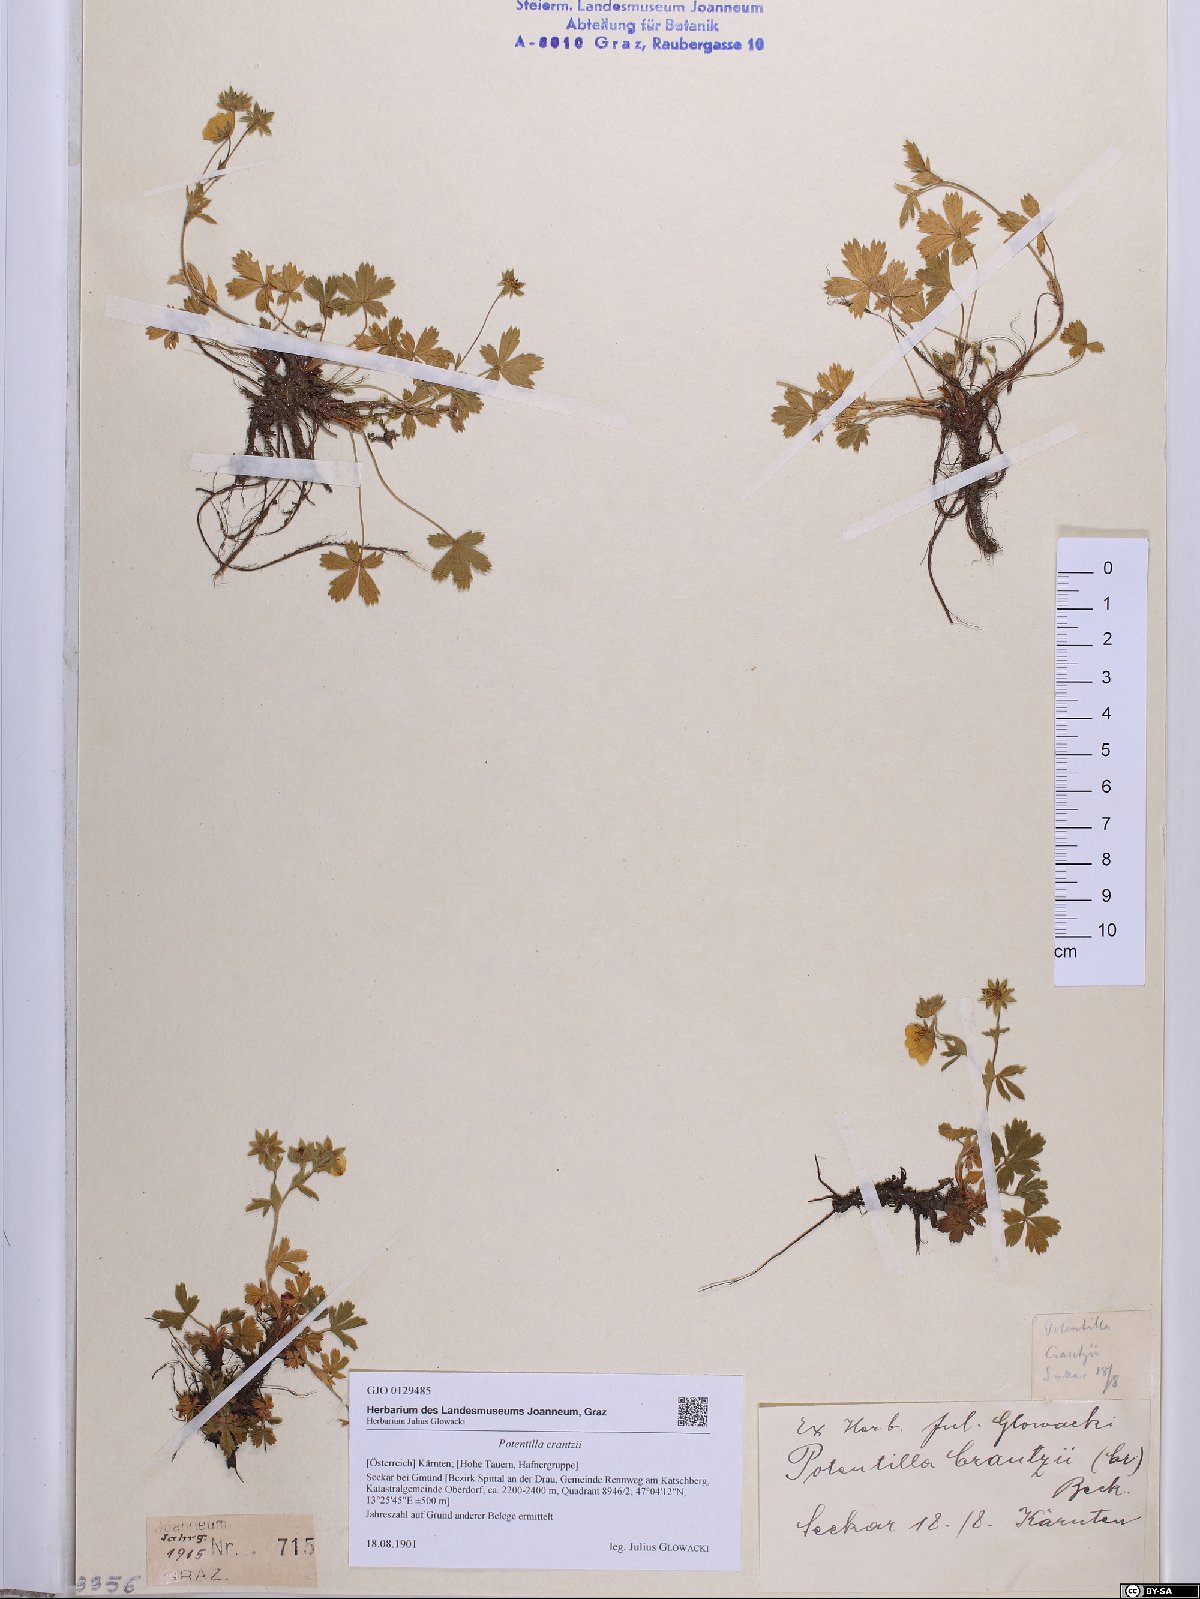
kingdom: Plantae
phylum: Tracheophyta
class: Magnoliopsida
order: Rosales
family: Rosaceae
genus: Potentilla
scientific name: Potentilla crantzii
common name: Alpine cinquefoil
